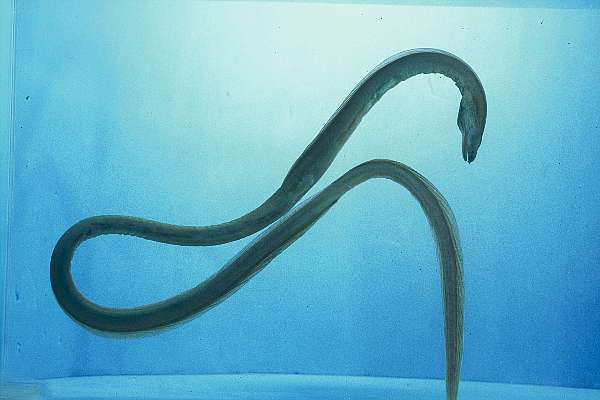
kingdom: Animalia
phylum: Chordata
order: Anguilliformes
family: Muraenidae
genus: Pseudechidna
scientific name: Pseudechidna brummeri
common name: White ribbon eel
